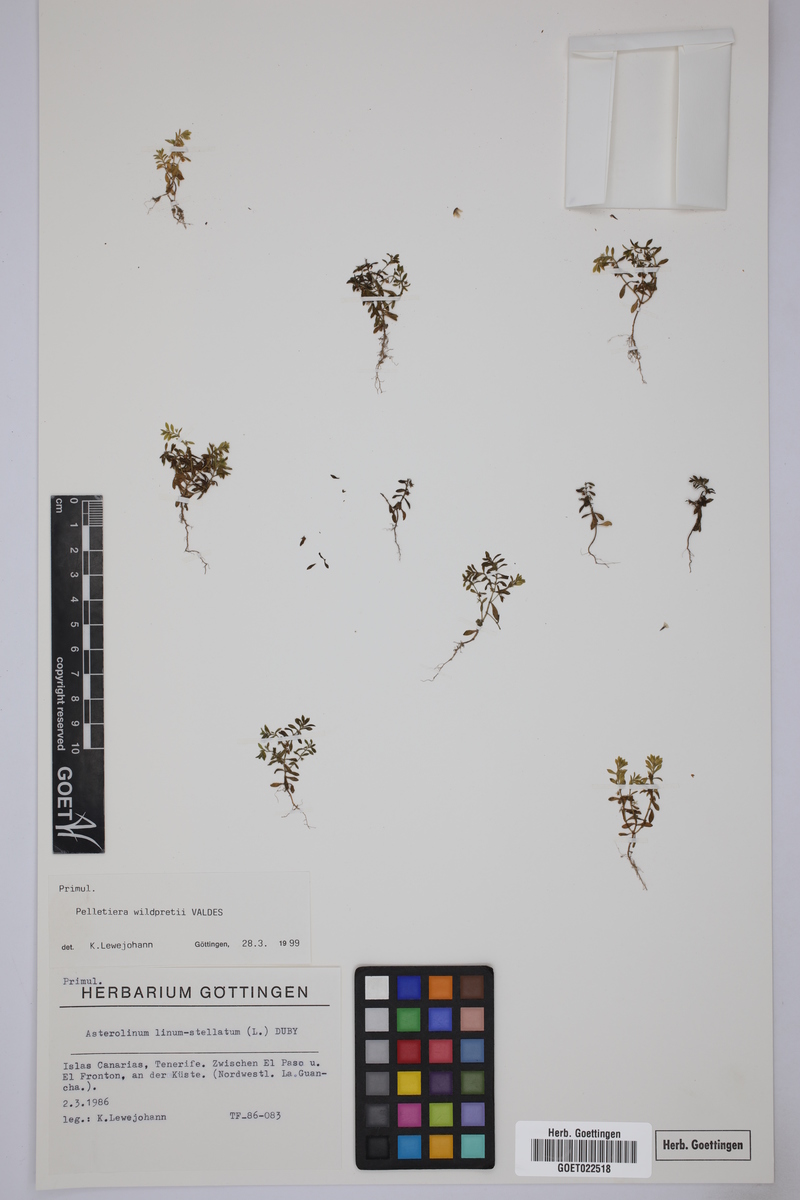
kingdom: Plantae
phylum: Tracheophyta
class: Magnoliopsida
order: Ericales
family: Primulaceae
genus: Lysimachia
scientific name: Lysimachia wildpretii
